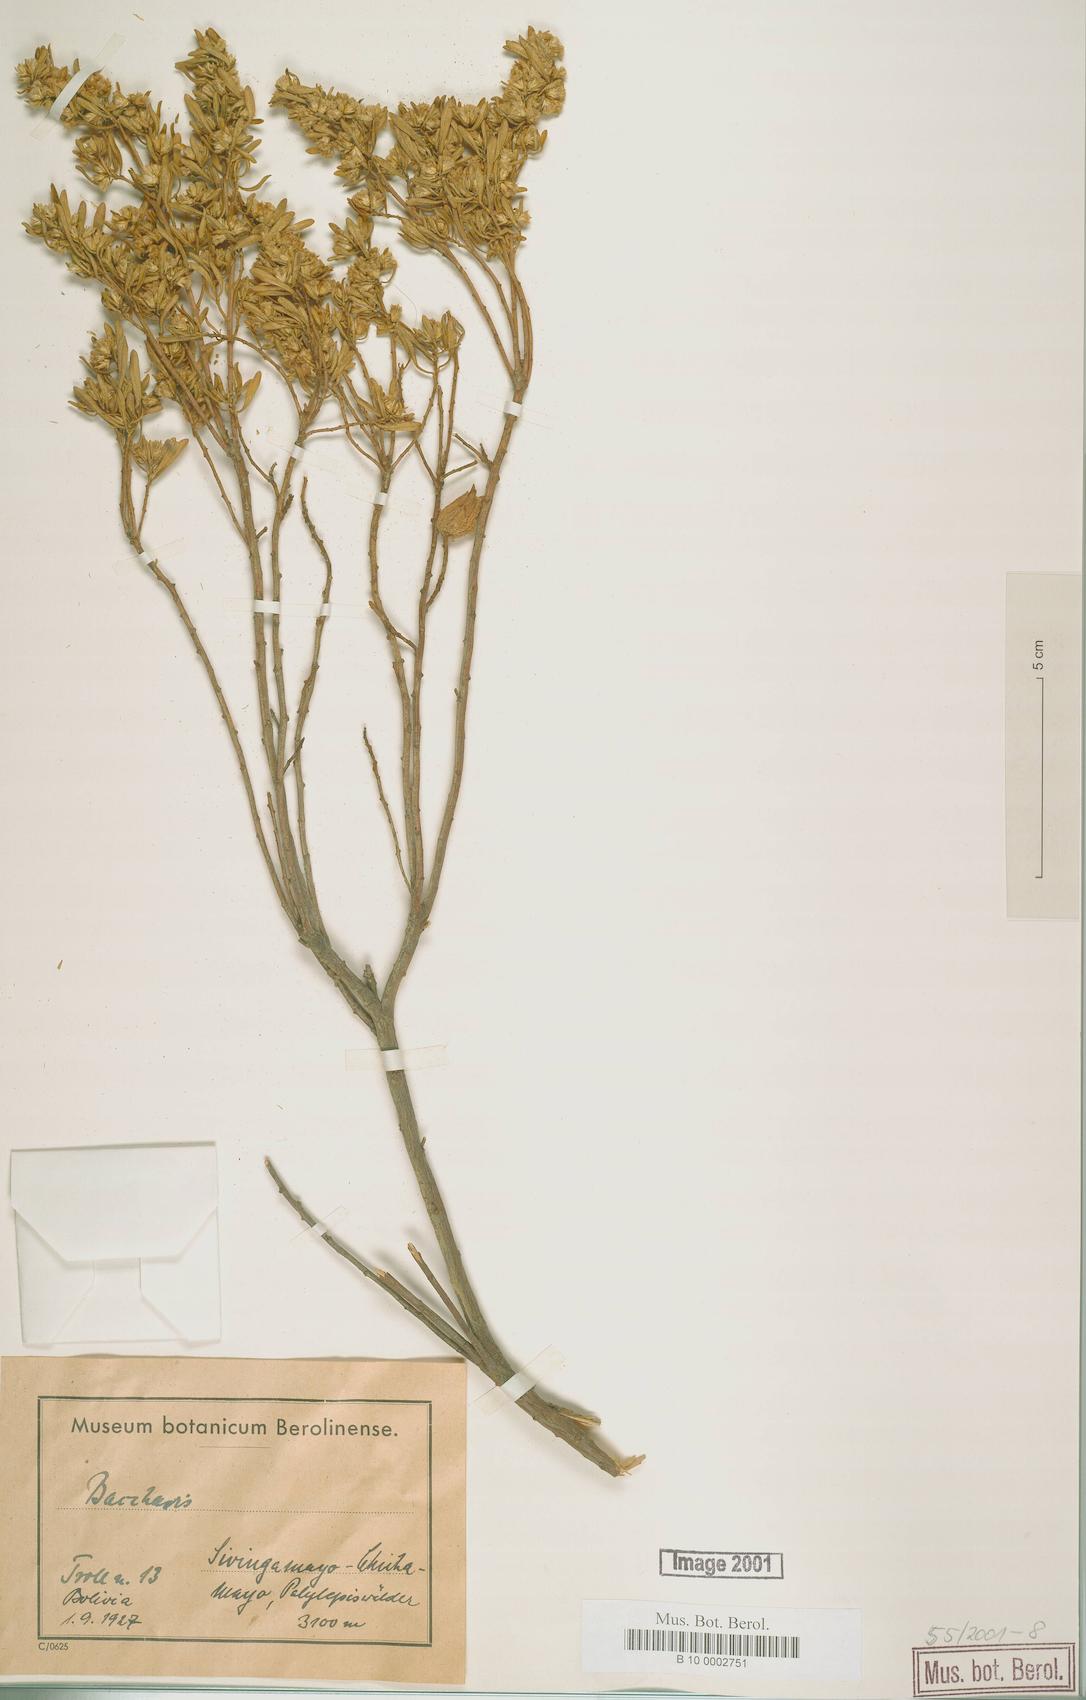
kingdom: Plantae
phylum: Tracheophyta
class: Magnoliopsida
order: Asterales
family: Asteraceae
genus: Baccharis
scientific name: Baccharis
